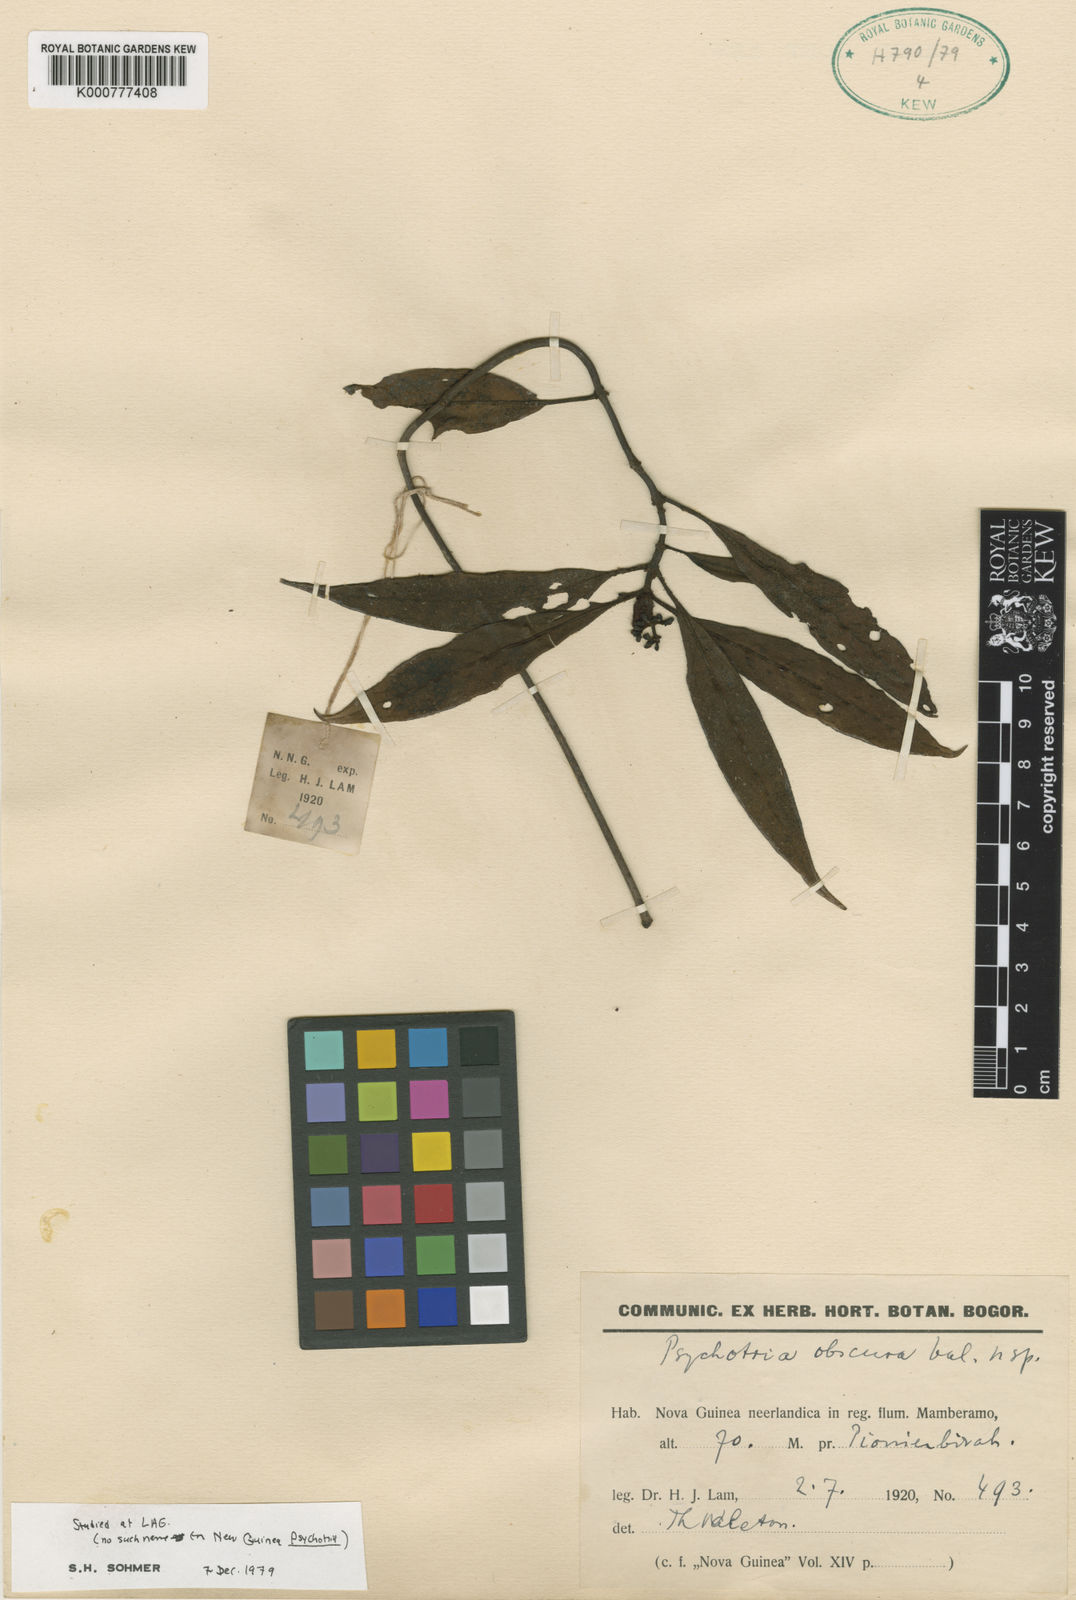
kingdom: Plantae
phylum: Tracheophyta
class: Magnoliopsida
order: Gentianales
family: Rubiaceae
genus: Psychotria
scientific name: Psychotria beaufortiensis
